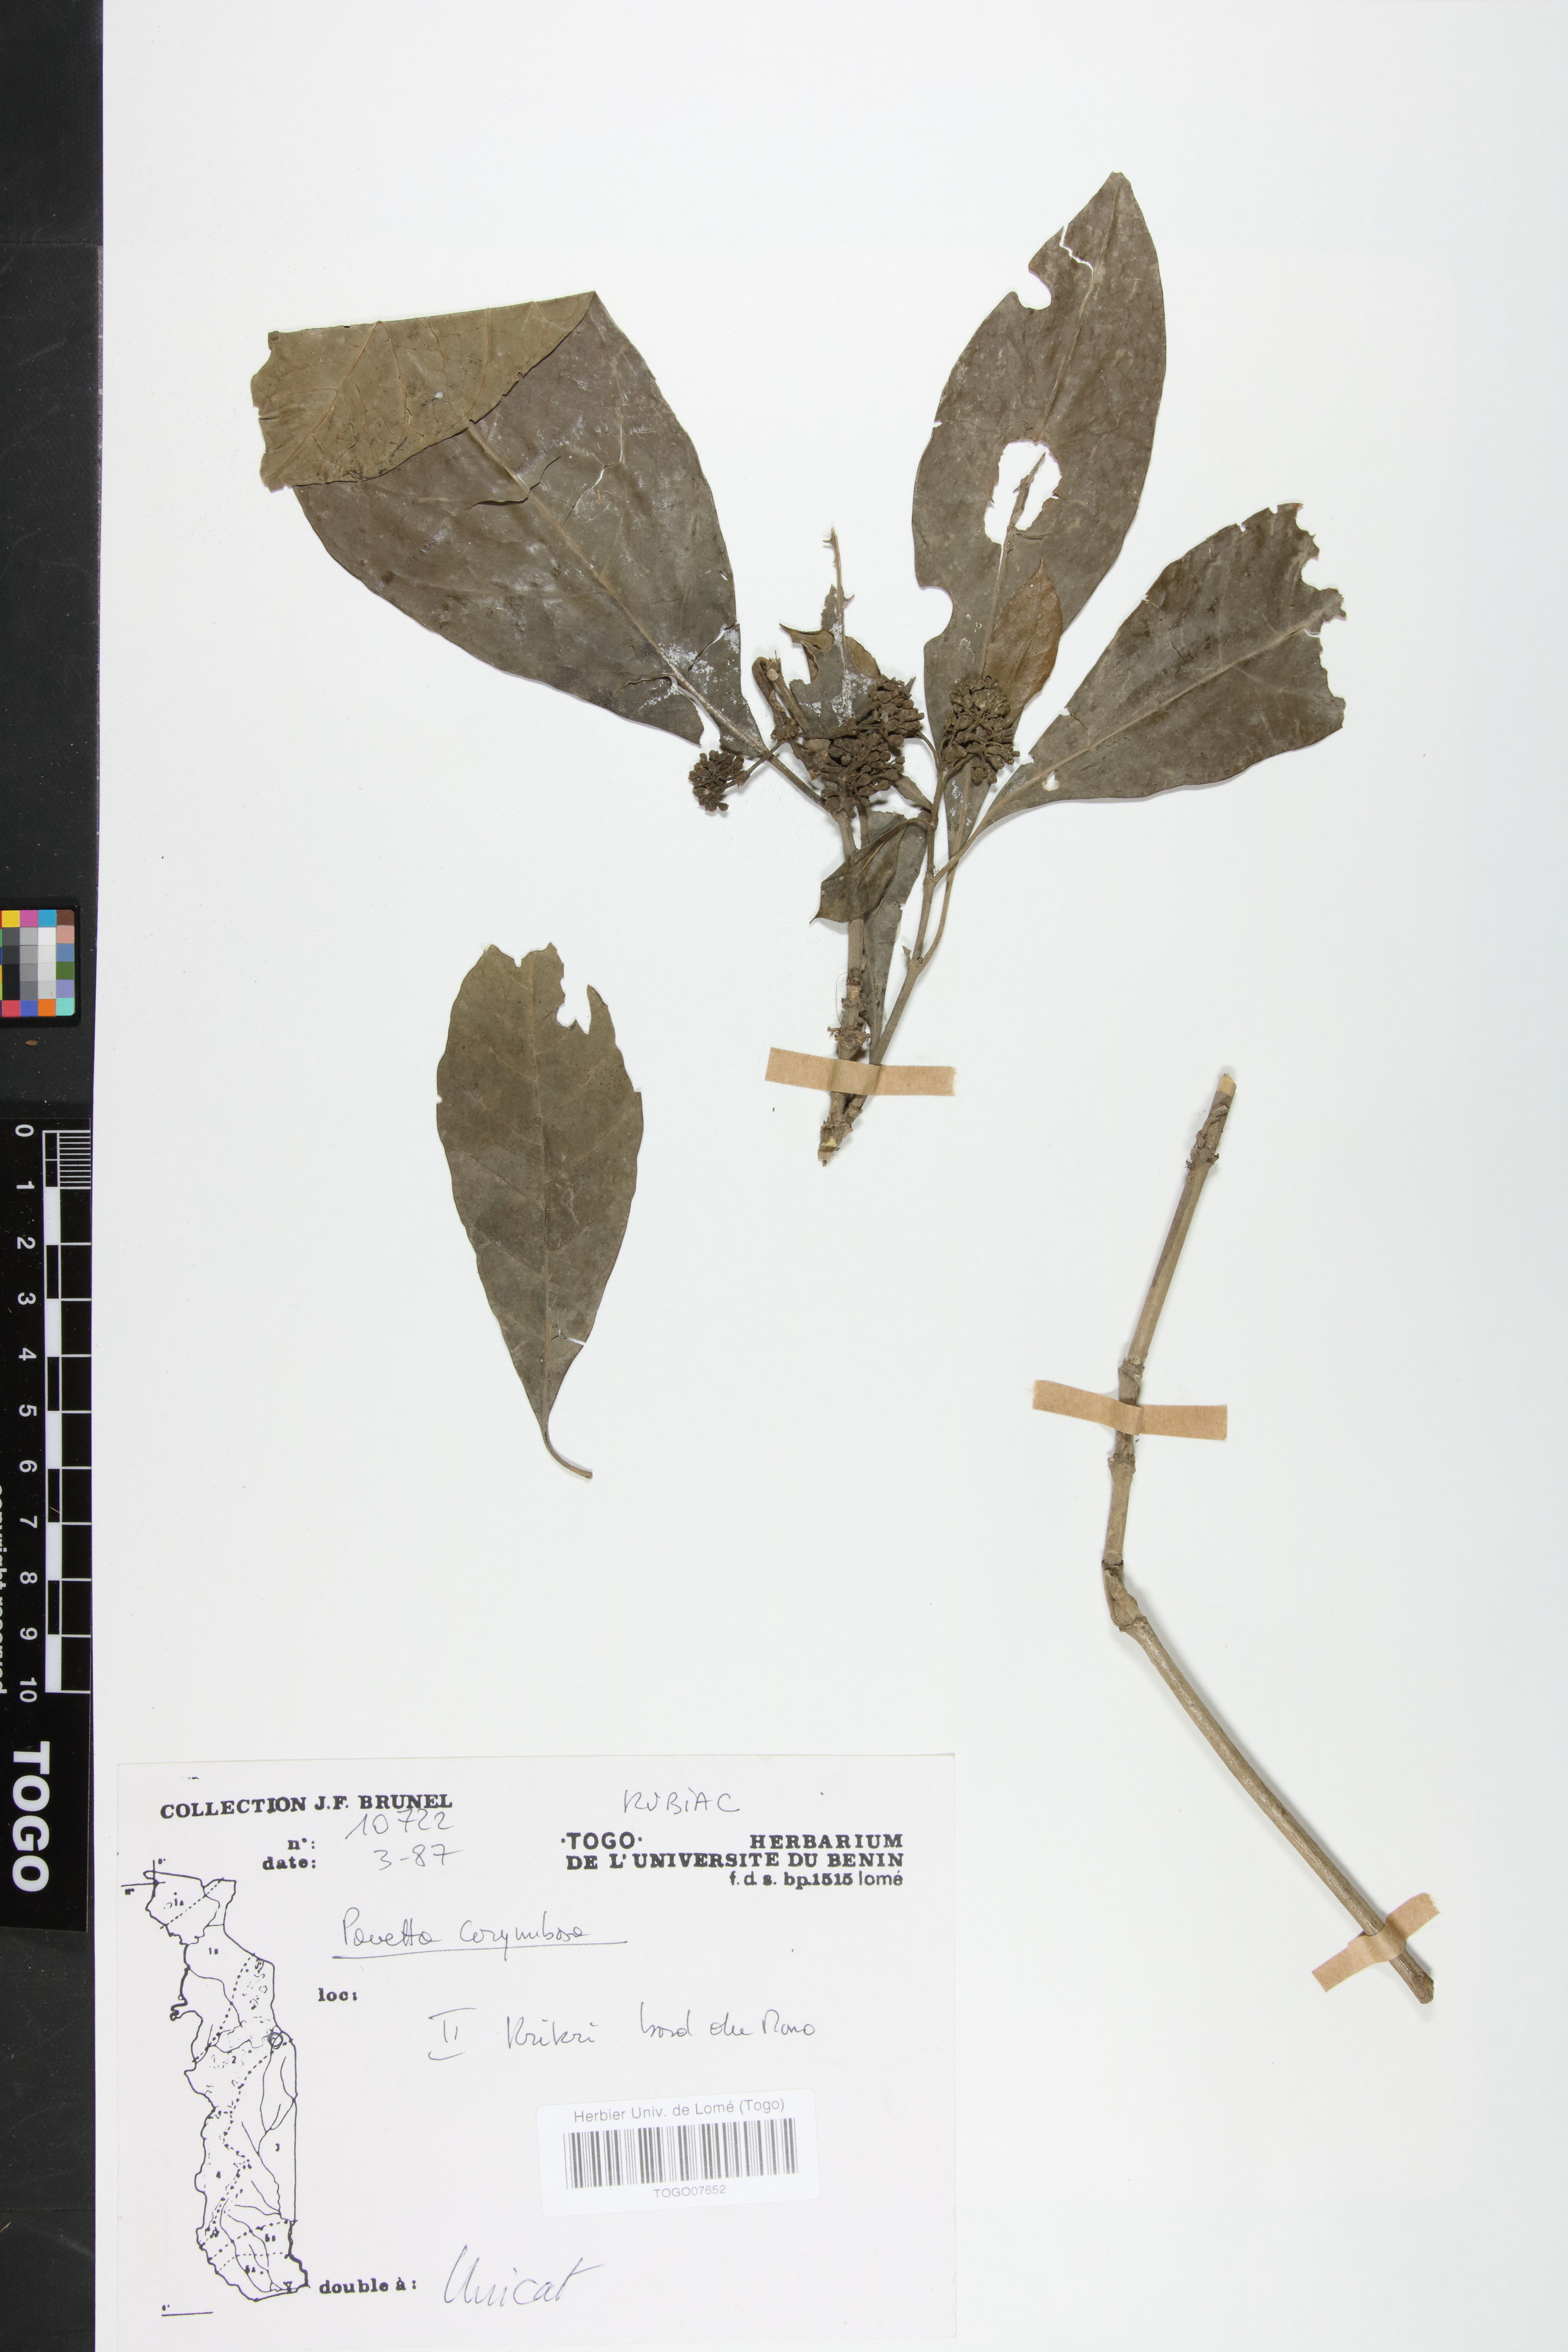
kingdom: Plantae
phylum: Tracheophyta
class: Magnoliopsida
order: Gentianales
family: Rubiaceae
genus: Pavetta
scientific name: Pavetta corymbosa
